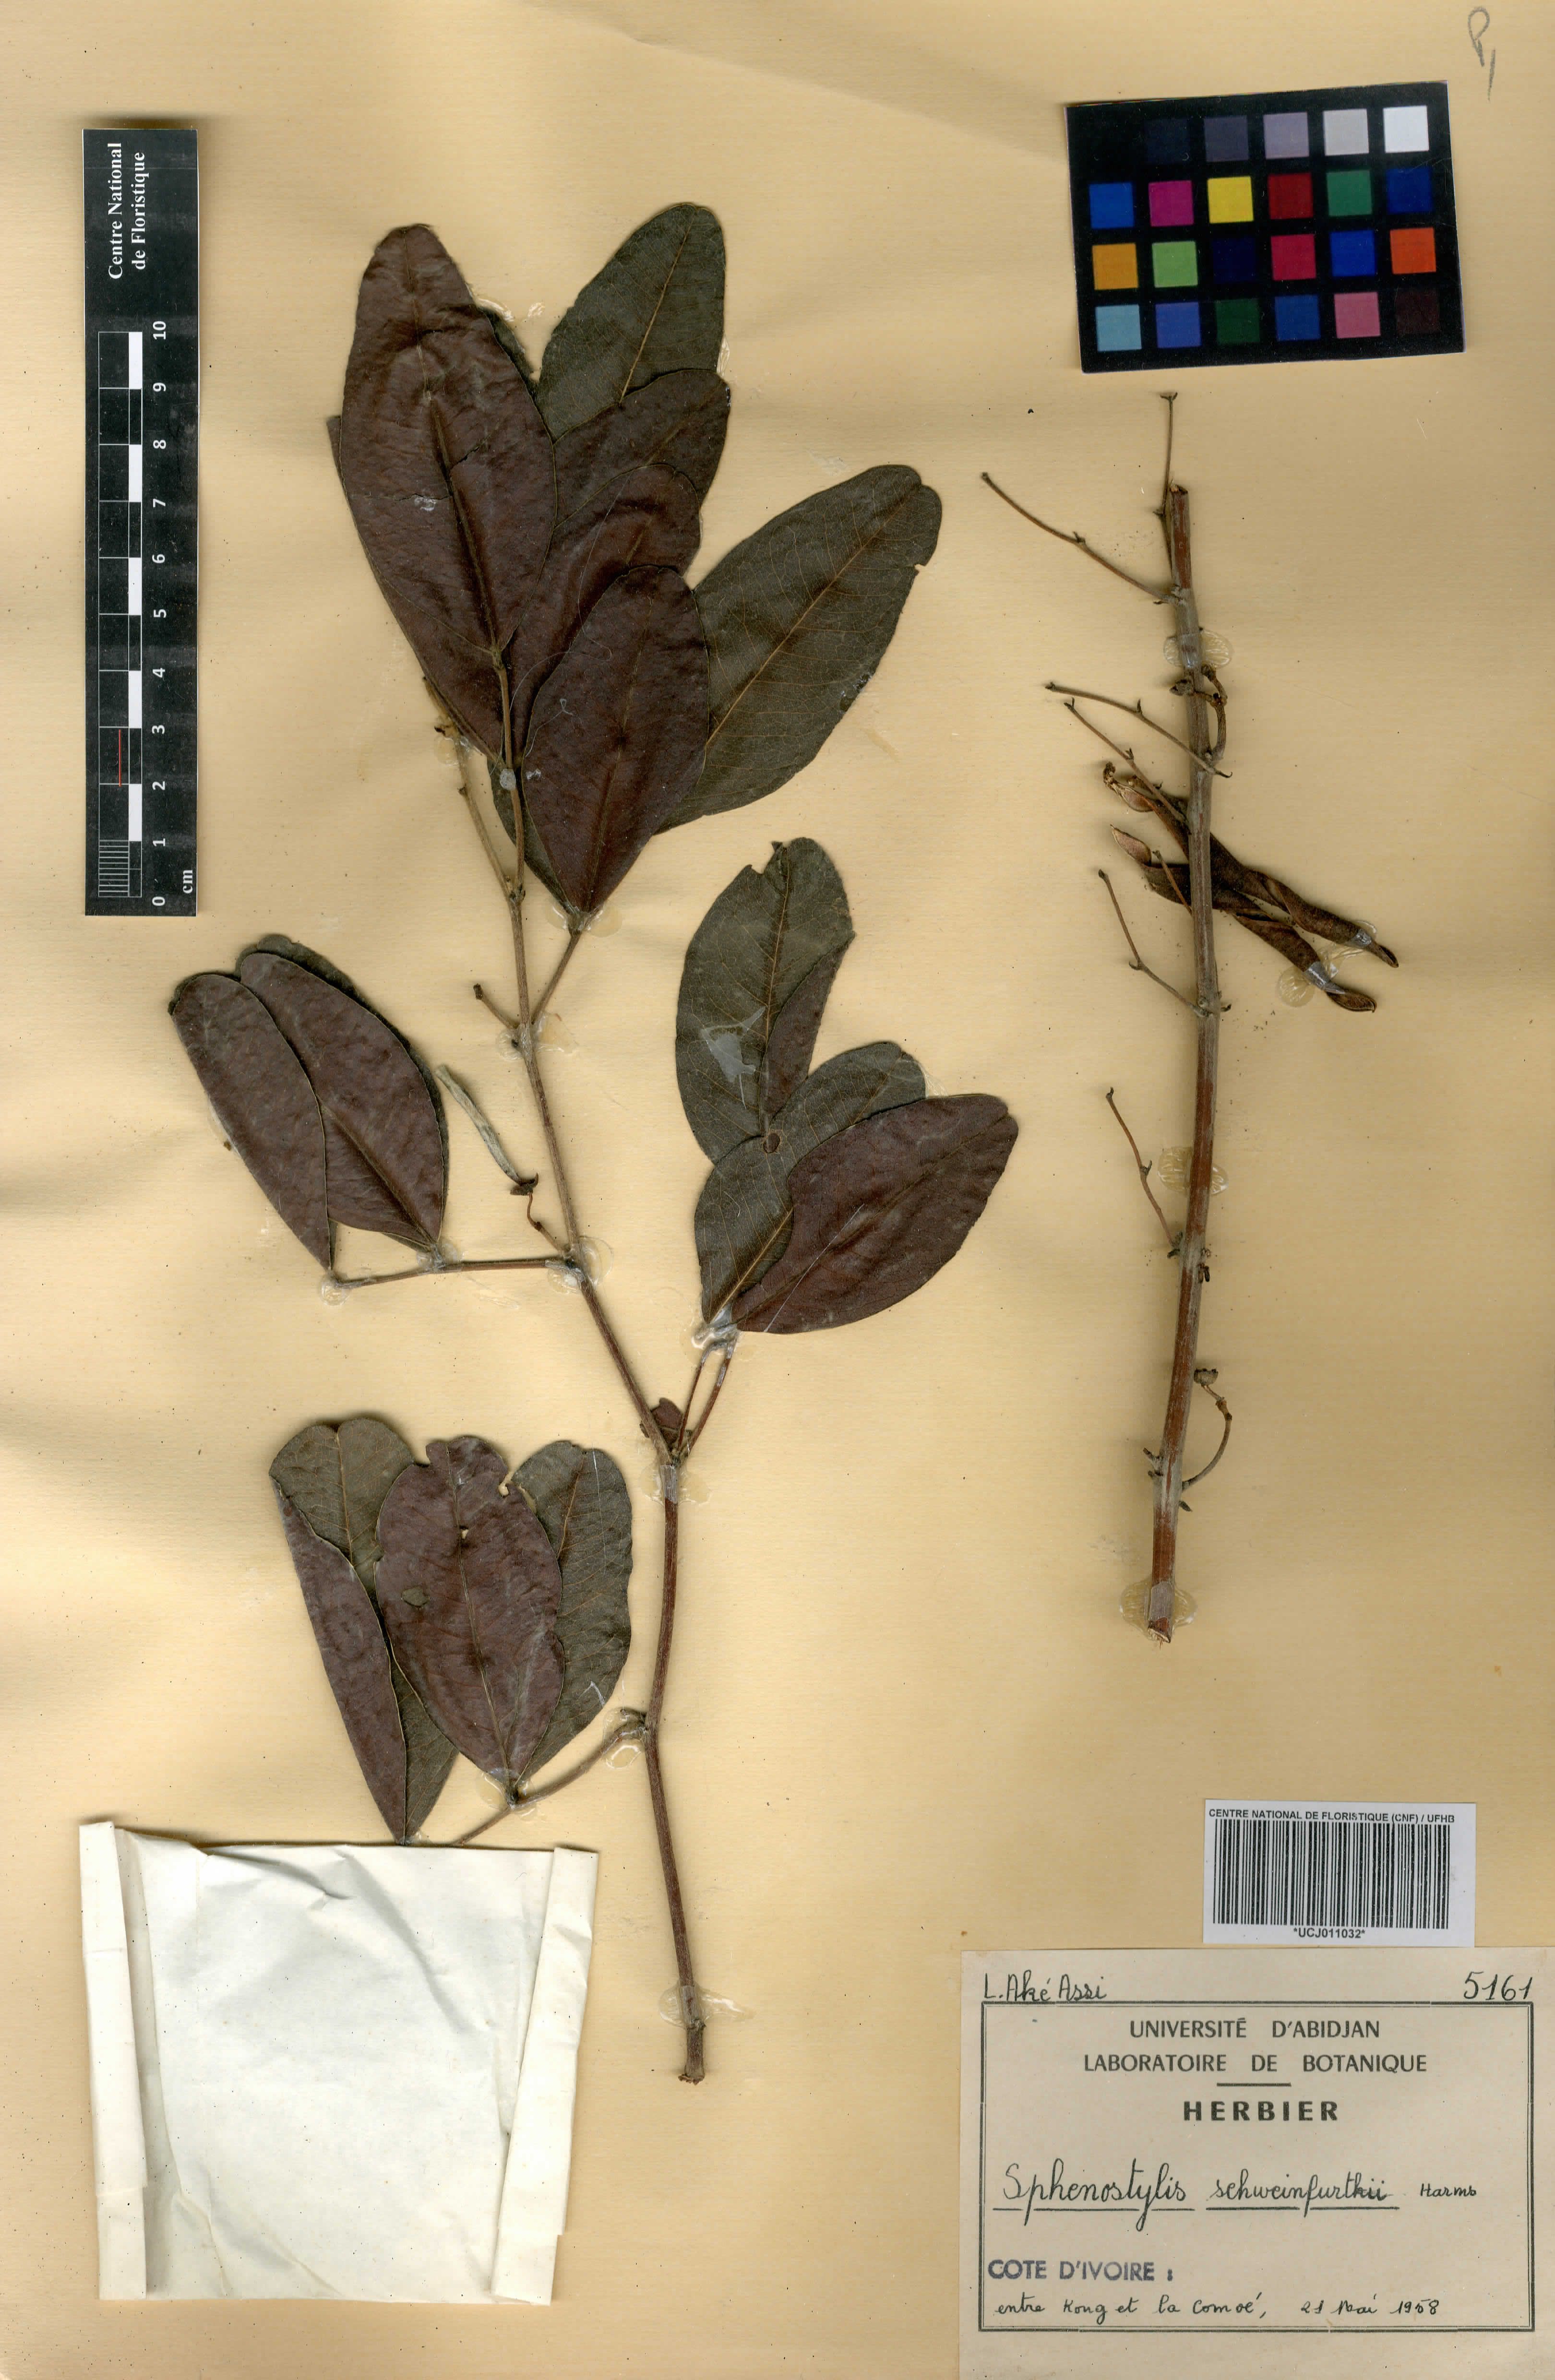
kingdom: Plantae
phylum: Tracheophyta
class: Magnoliopsida
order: Fabales
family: Fabaceae
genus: Sphenostylis
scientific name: Sphenostylis schweinfurthii
